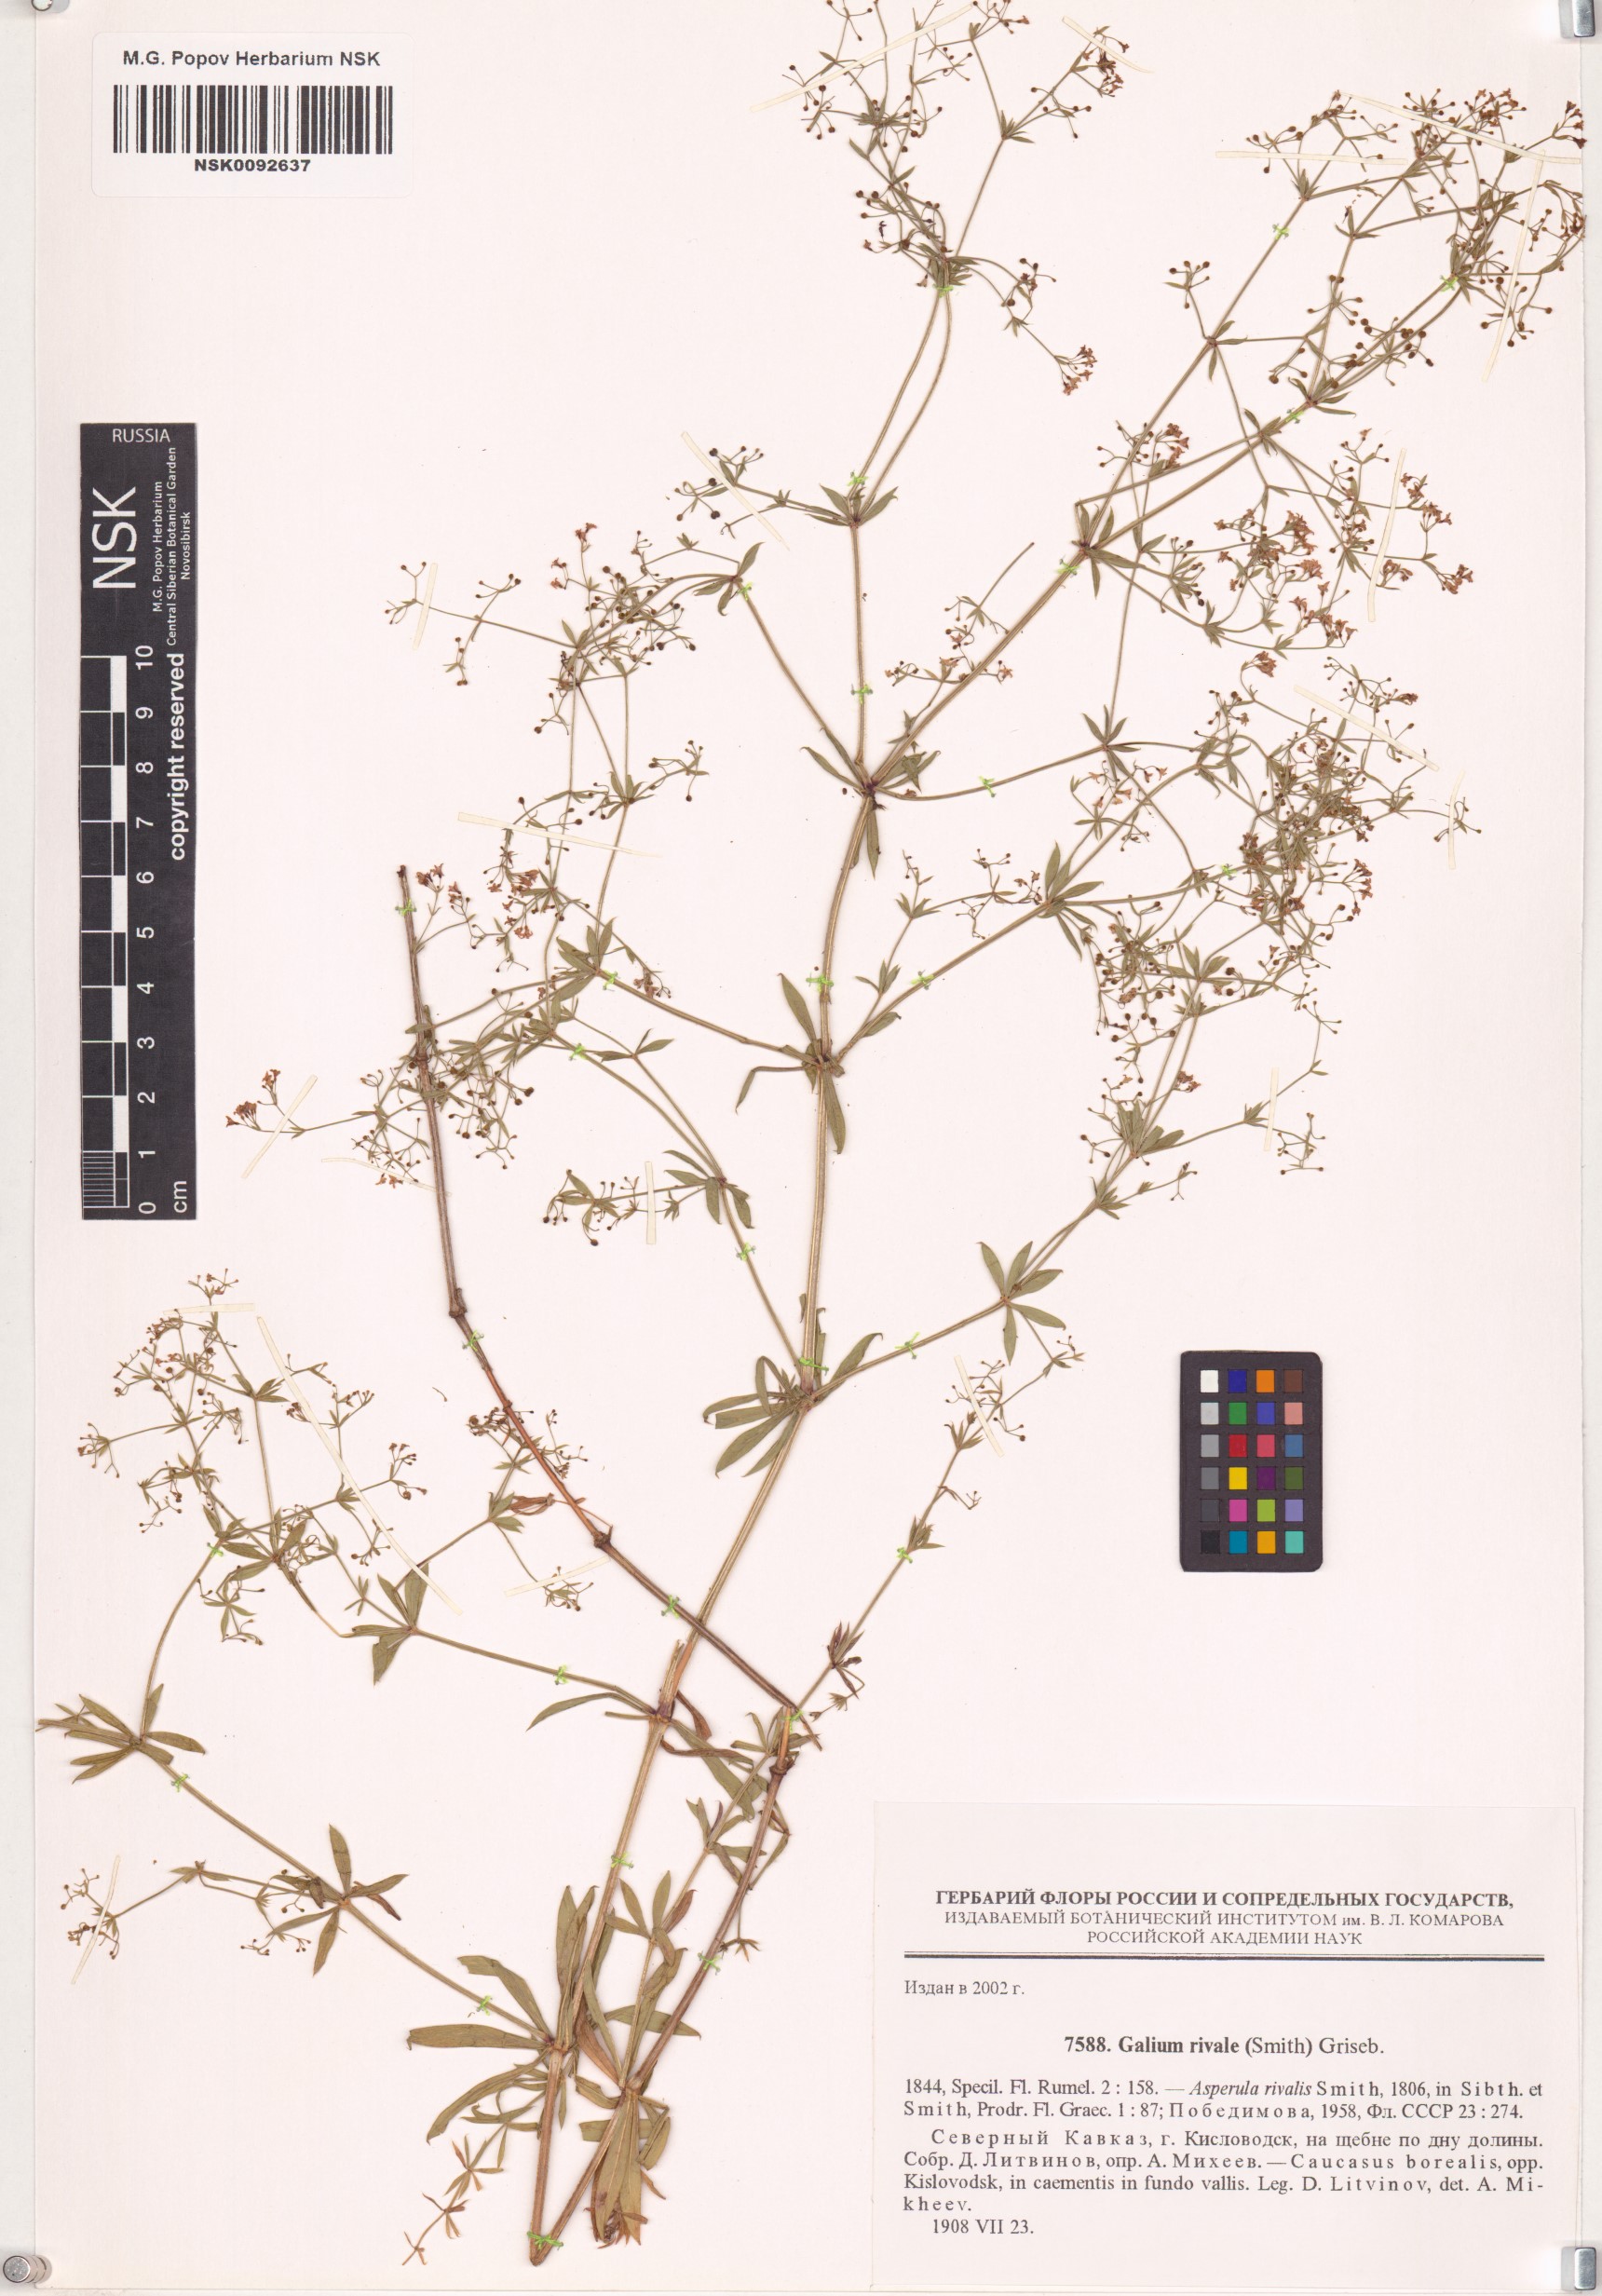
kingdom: Plantae
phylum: Tracheophyta
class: Magnoliopsida
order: Gentianales
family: Rubiaceae
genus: Galium
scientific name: Galium rivale
